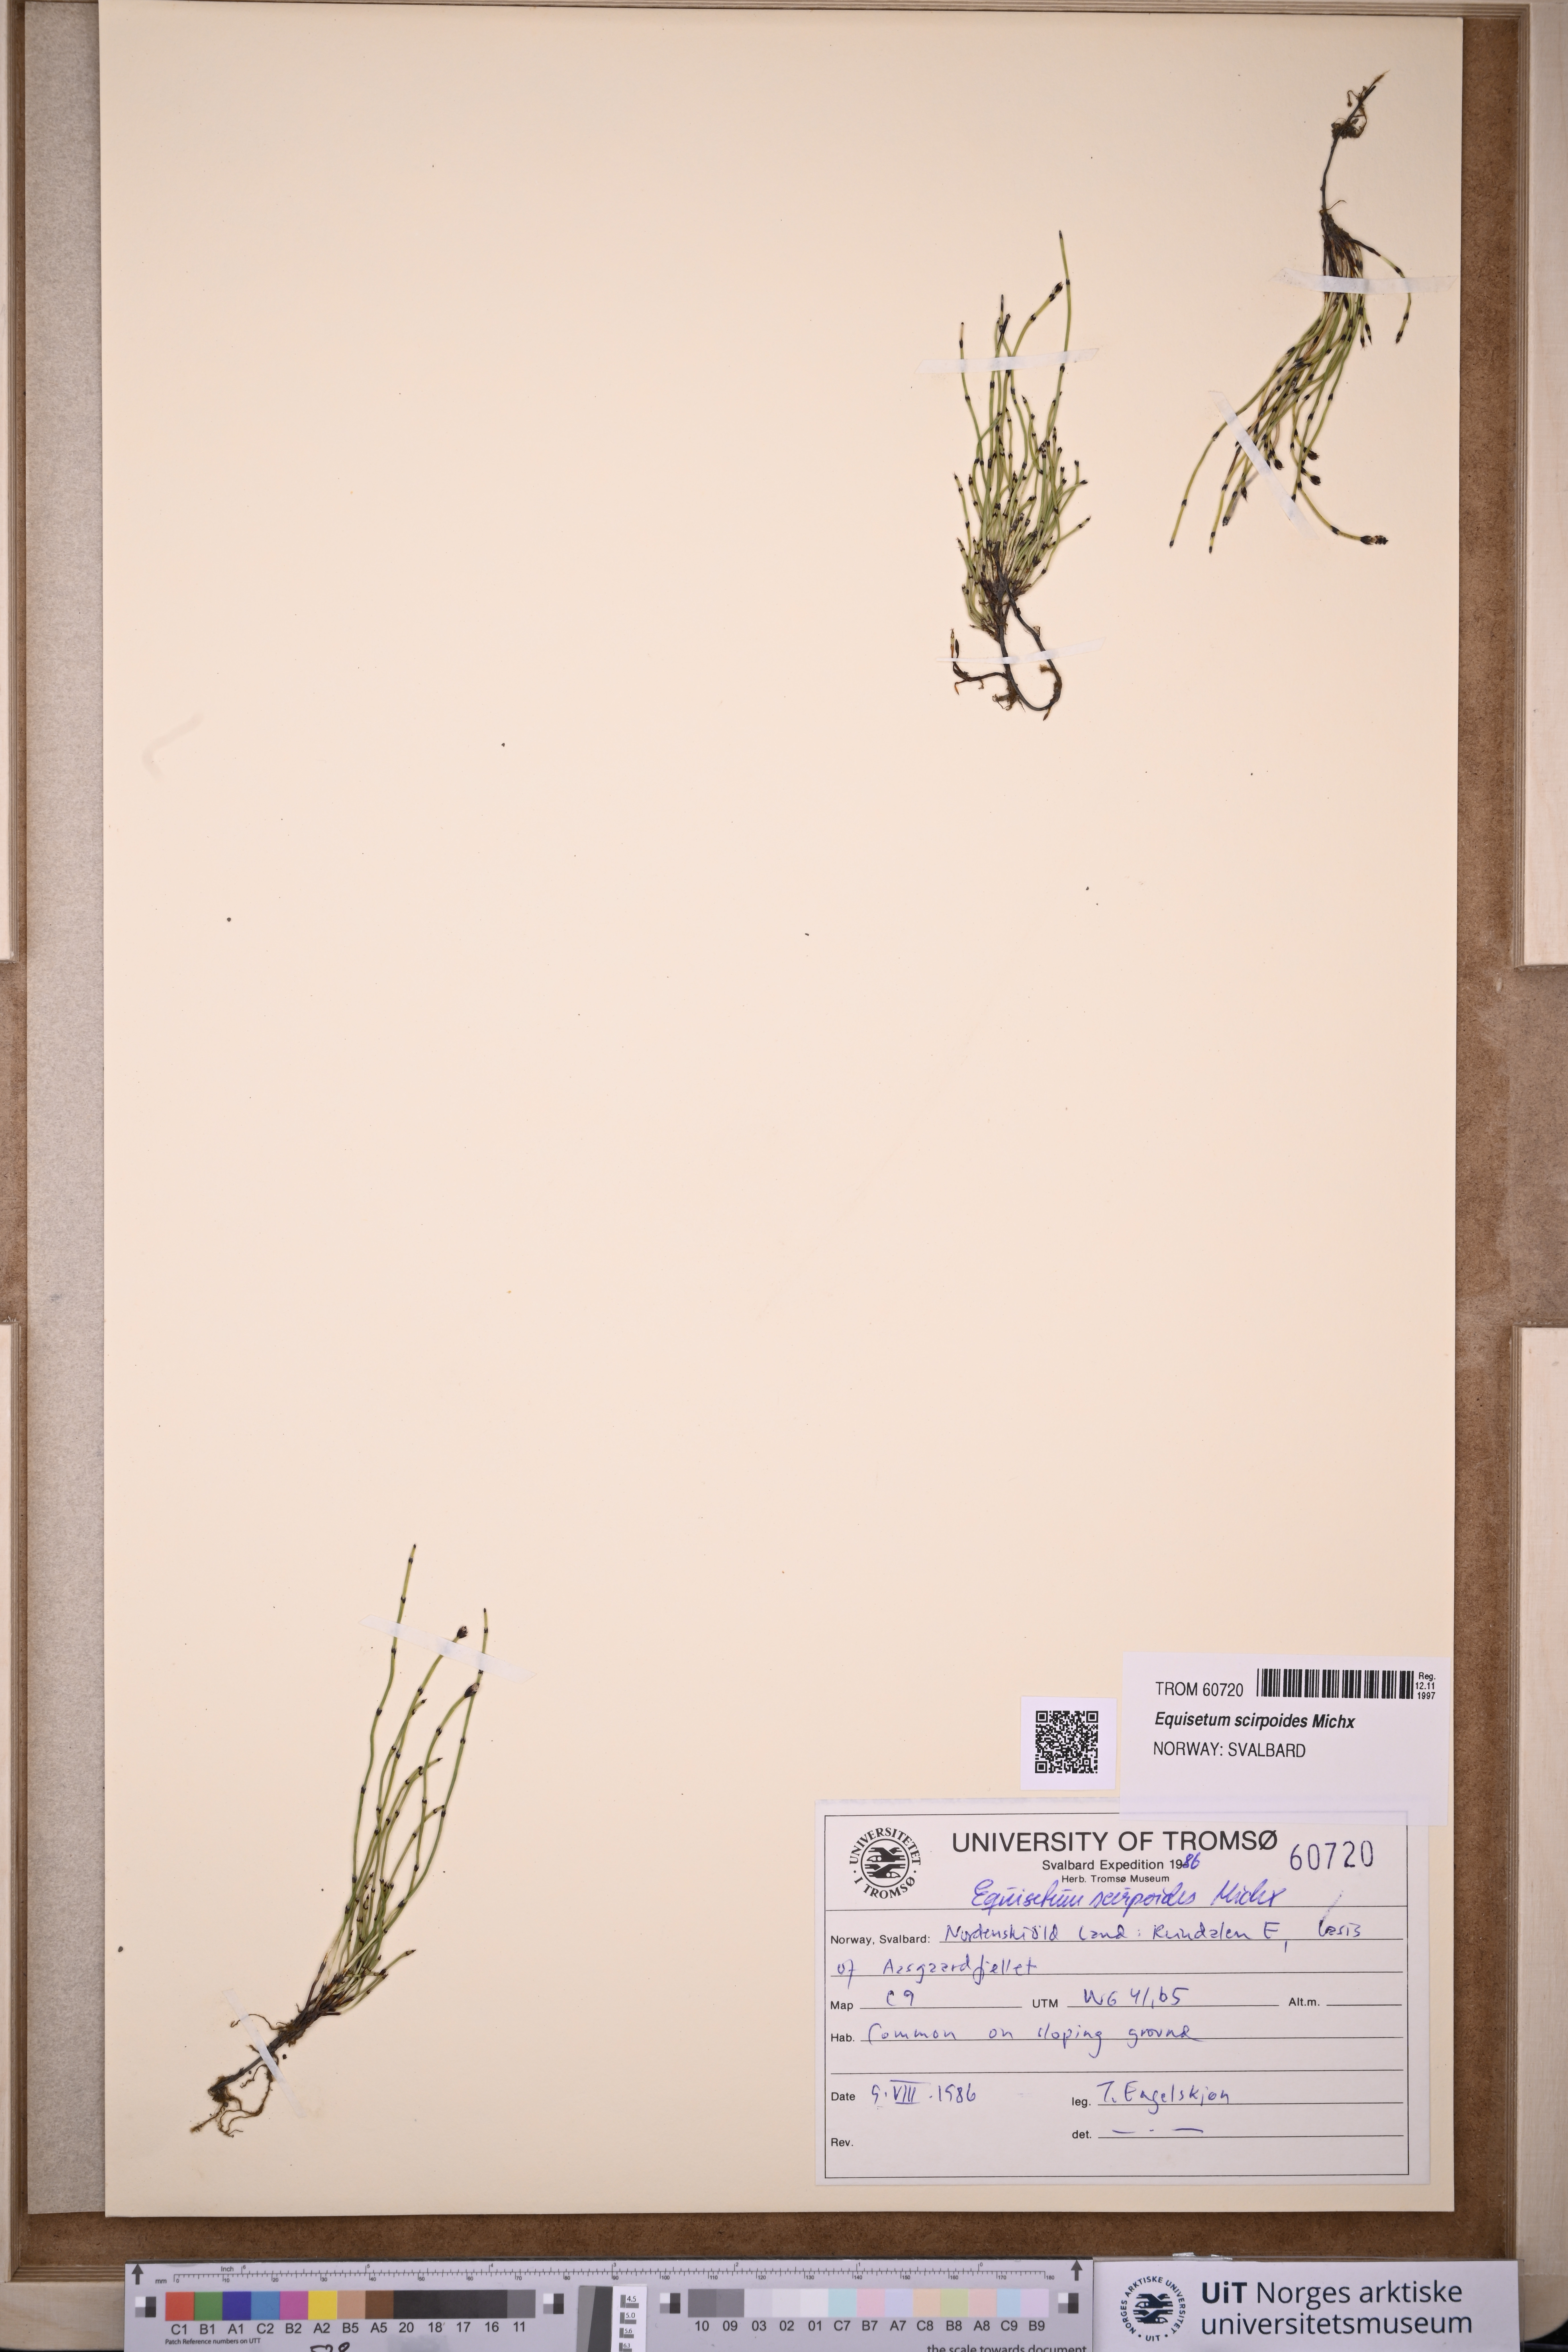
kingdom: Plantae
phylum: Tracheophyta
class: Polypodiopsida
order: Equisetales
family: Equisetaceae
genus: Equisetum
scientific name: Equisetum scirpoides
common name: Delicate horsetail
